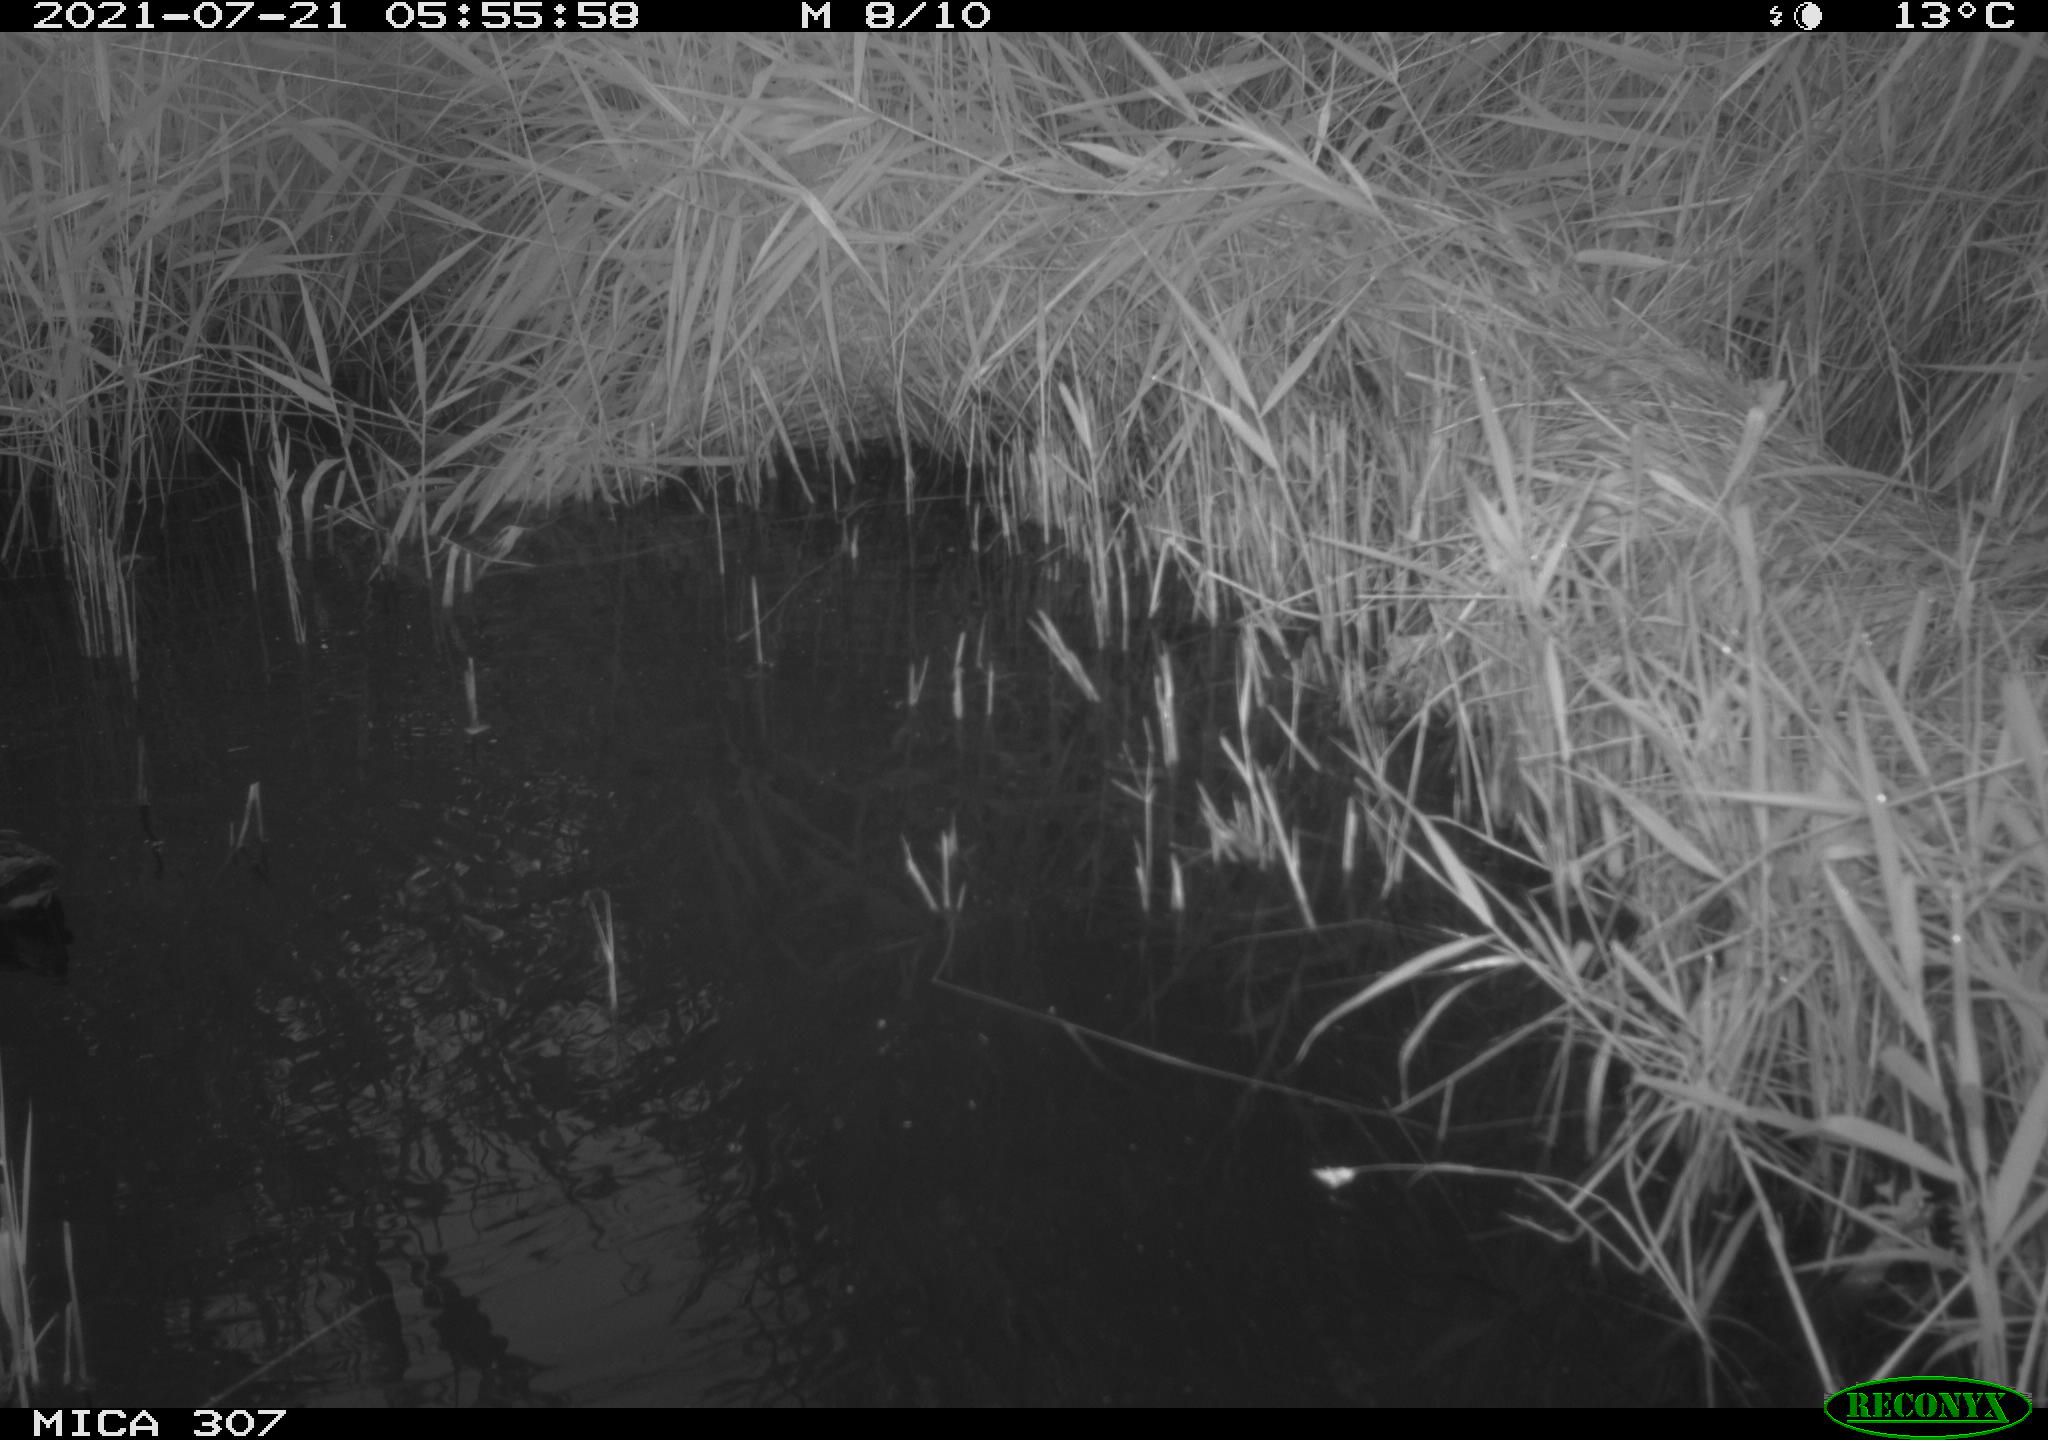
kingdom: Animalia
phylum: Chordata
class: Aves
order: Gruiformes
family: Rallidae
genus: Gallinula
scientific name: Gallinula chloropus
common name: Common moorhen
